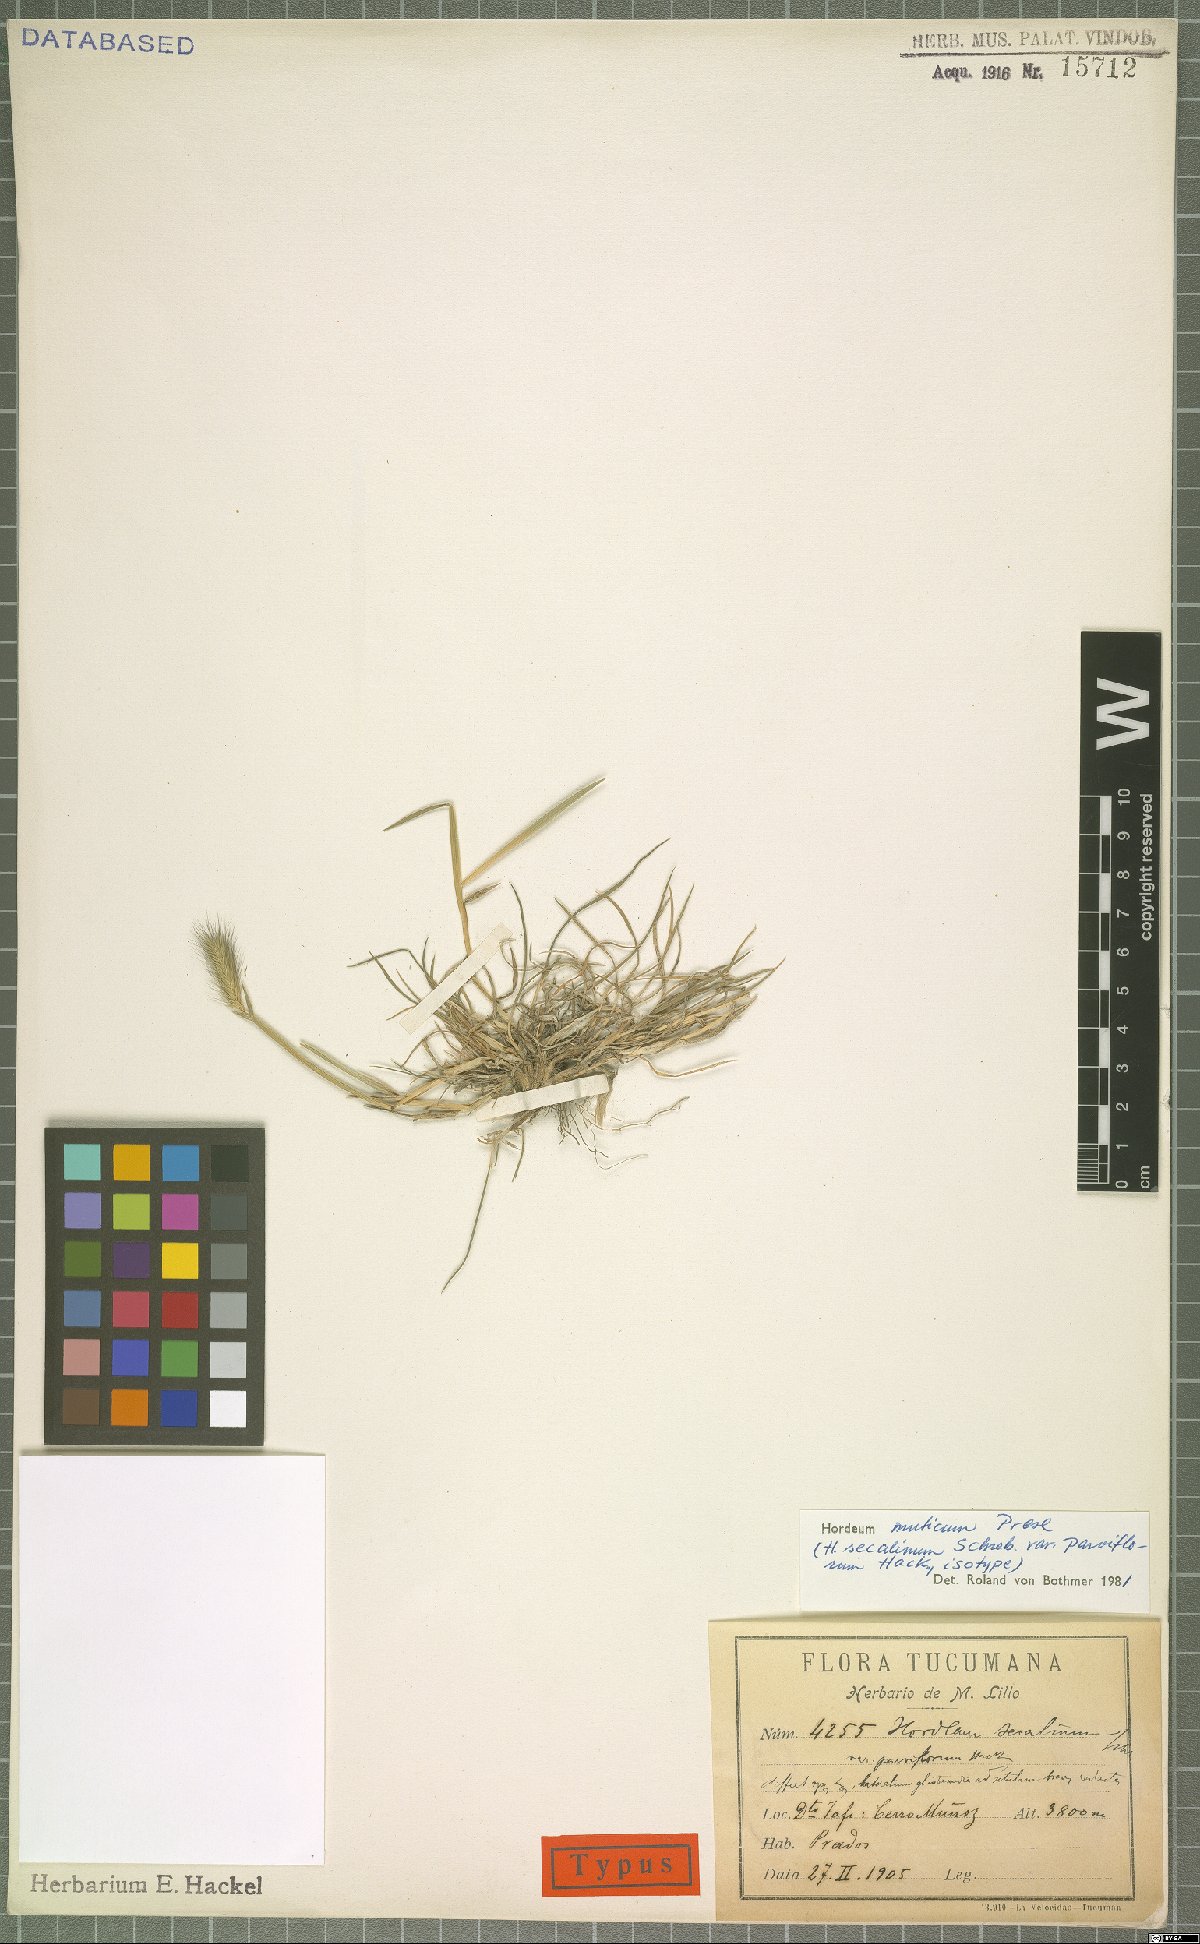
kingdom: Plantae
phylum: Tracheophyta
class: Liliopsida
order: Poales
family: Poaceae
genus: Hordeum
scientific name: Hordeum muticum
